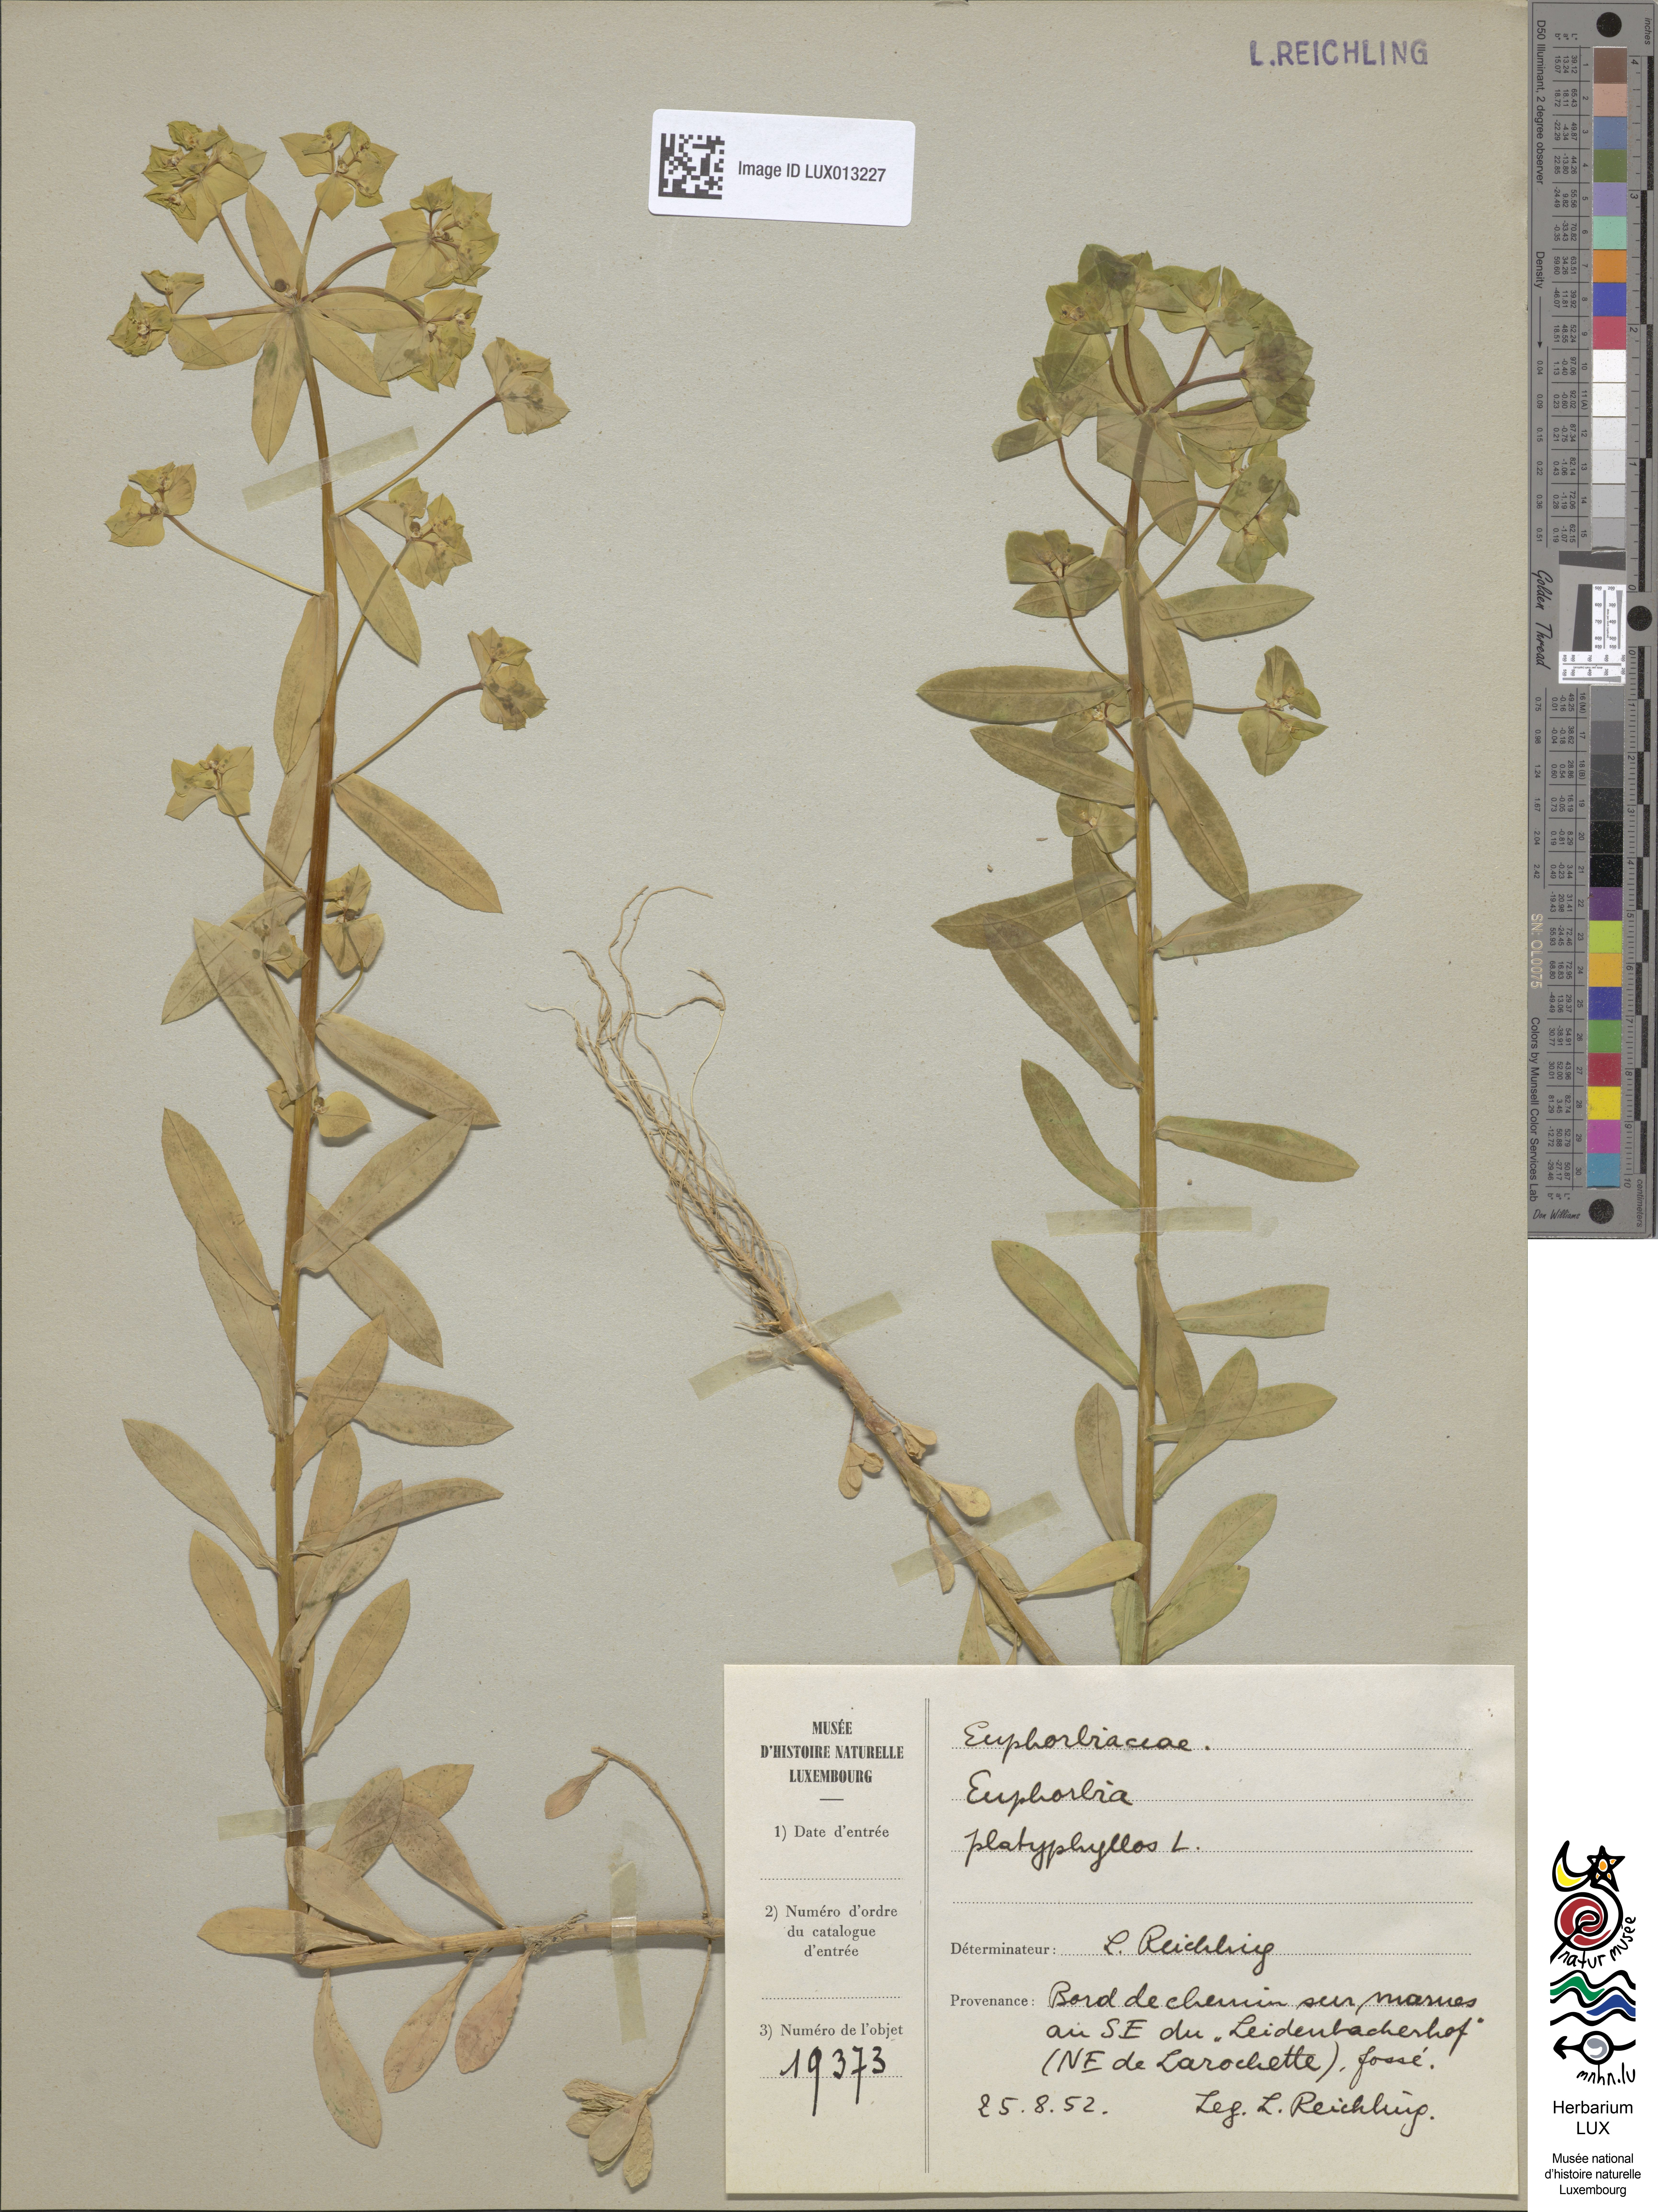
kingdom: Plantae
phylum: Tracheophyta
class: Magnoliopsida
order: Malpighiales
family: Euphorbiaceae
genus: Euphorbia
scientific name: Euphorbia platyphyllos
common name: Broad-leaved spurge
